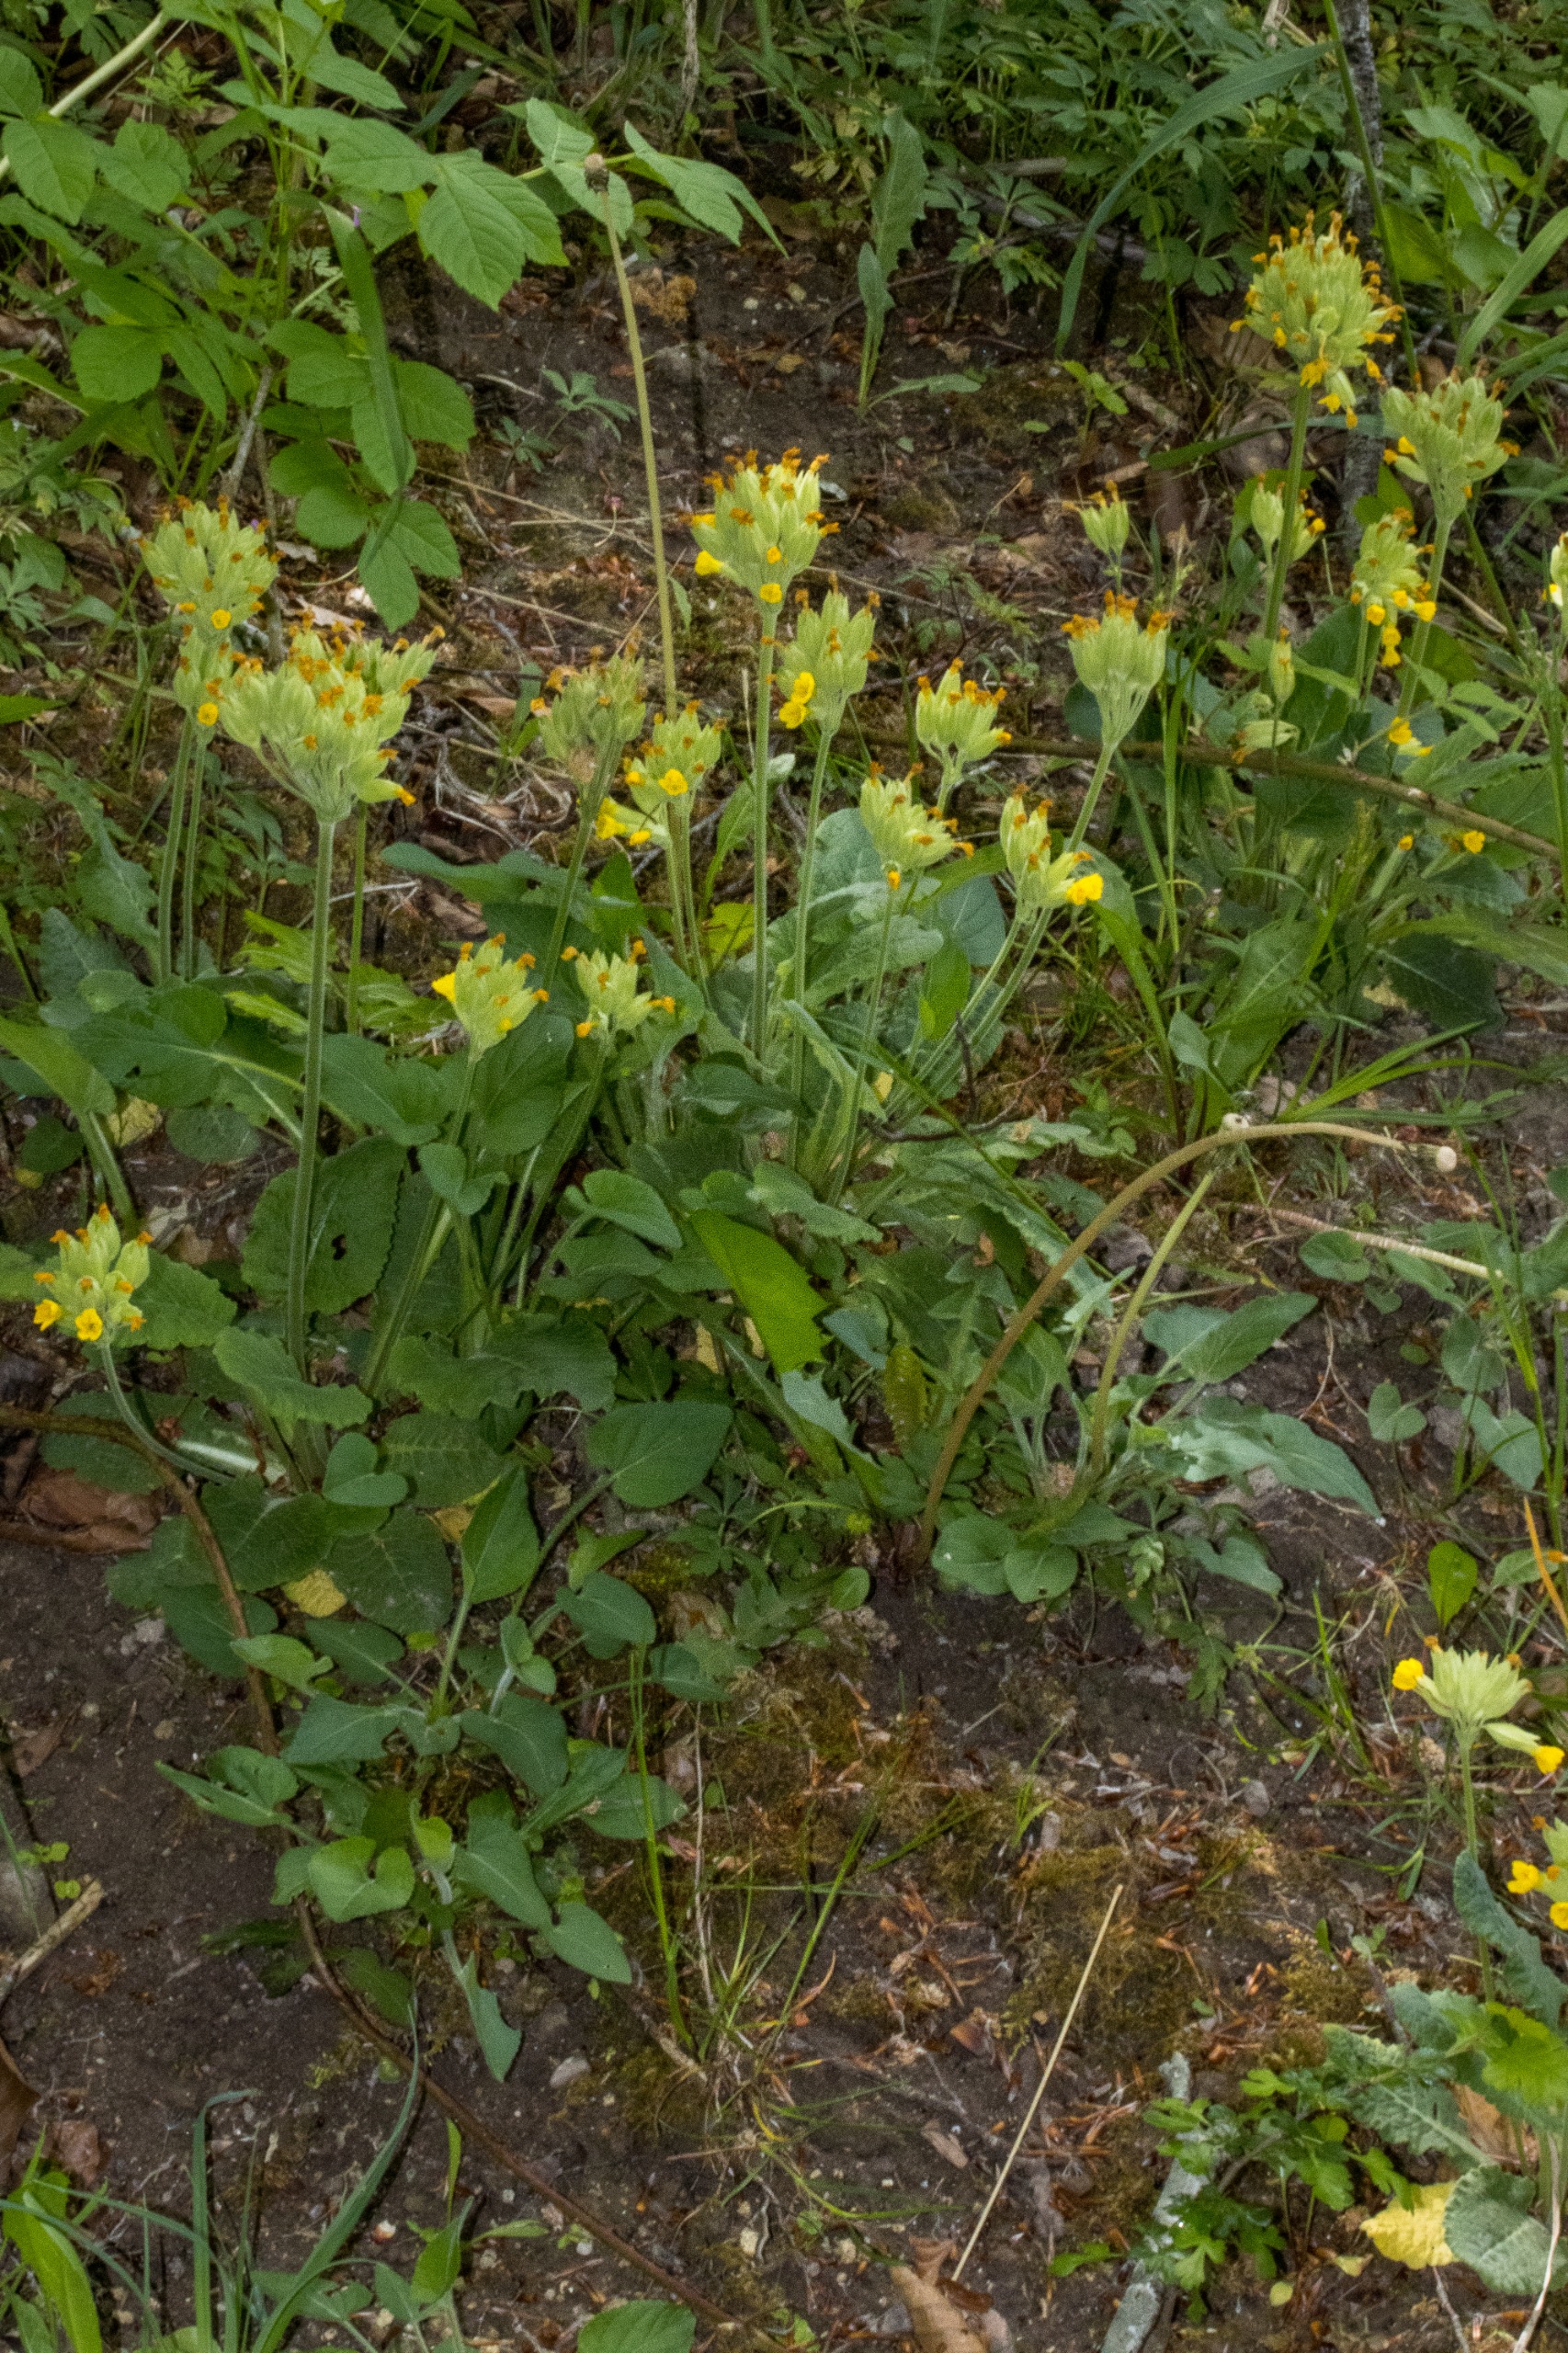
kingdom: Plantae
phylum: Tracheophyta
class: Magnoliopsida
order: Ericales
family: Primulaceae
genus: Primula
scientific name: Primula veris
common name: Hulkravet kodriver
